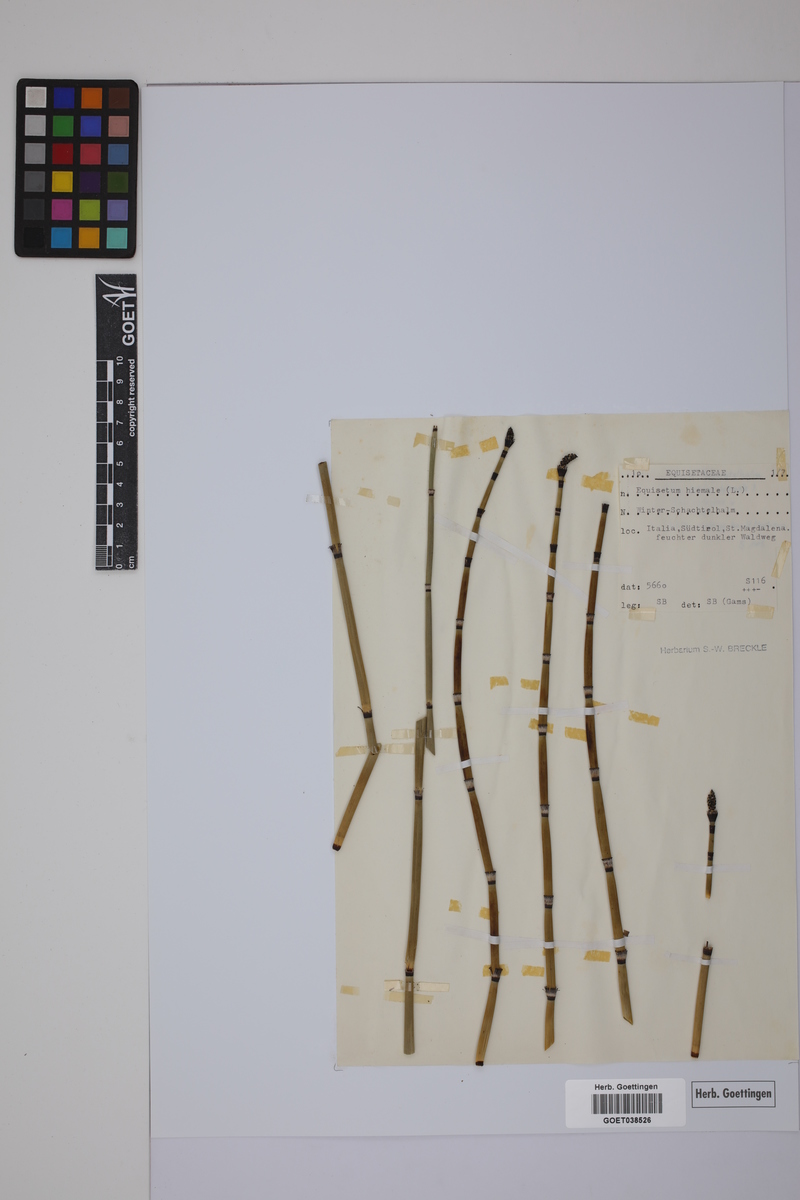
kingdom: Plantae
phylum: Tracheophyta
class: Polypodiopsida
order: Equisetales
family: Equisetaceae
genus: Equisetum
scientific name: Equisetum hyemale
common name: Rough horsetail
